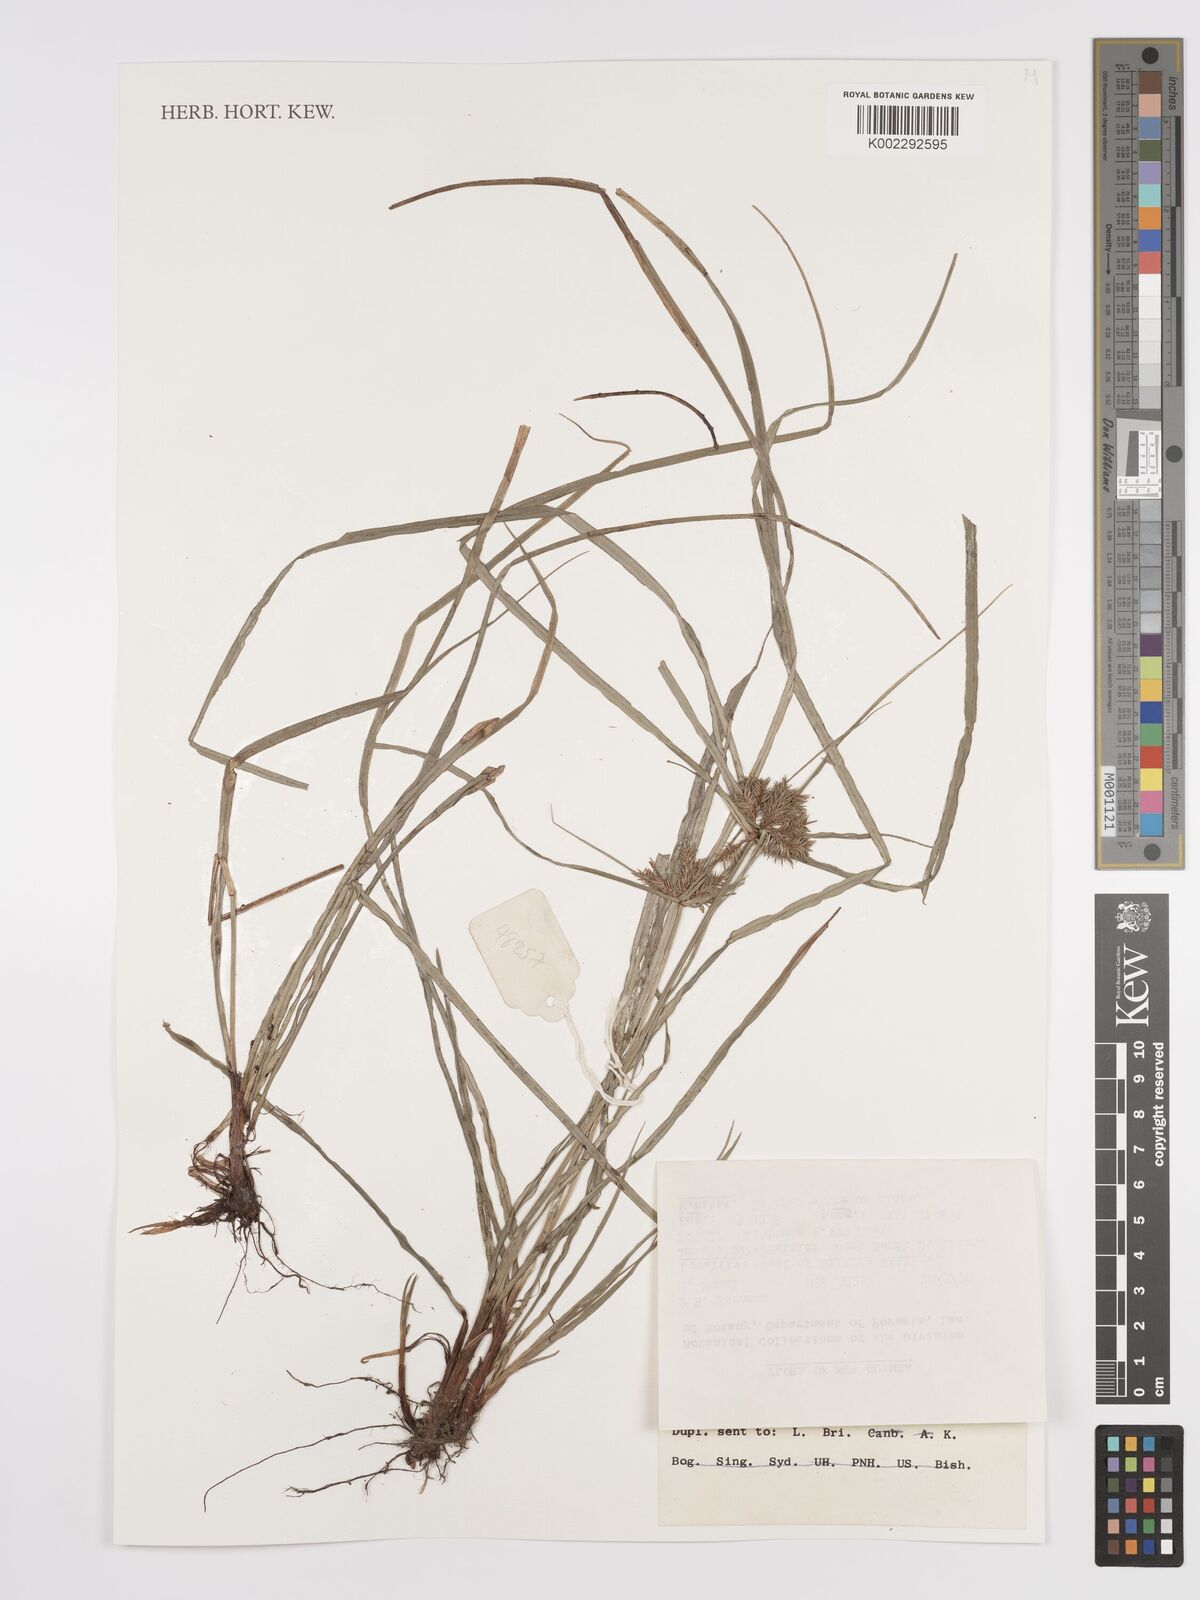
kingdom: Plantae
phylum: Tracheophyta
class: Liliopsida
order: Poales
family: Cyperaceae
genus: Cyperus
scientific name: Cyperus cyperinus
